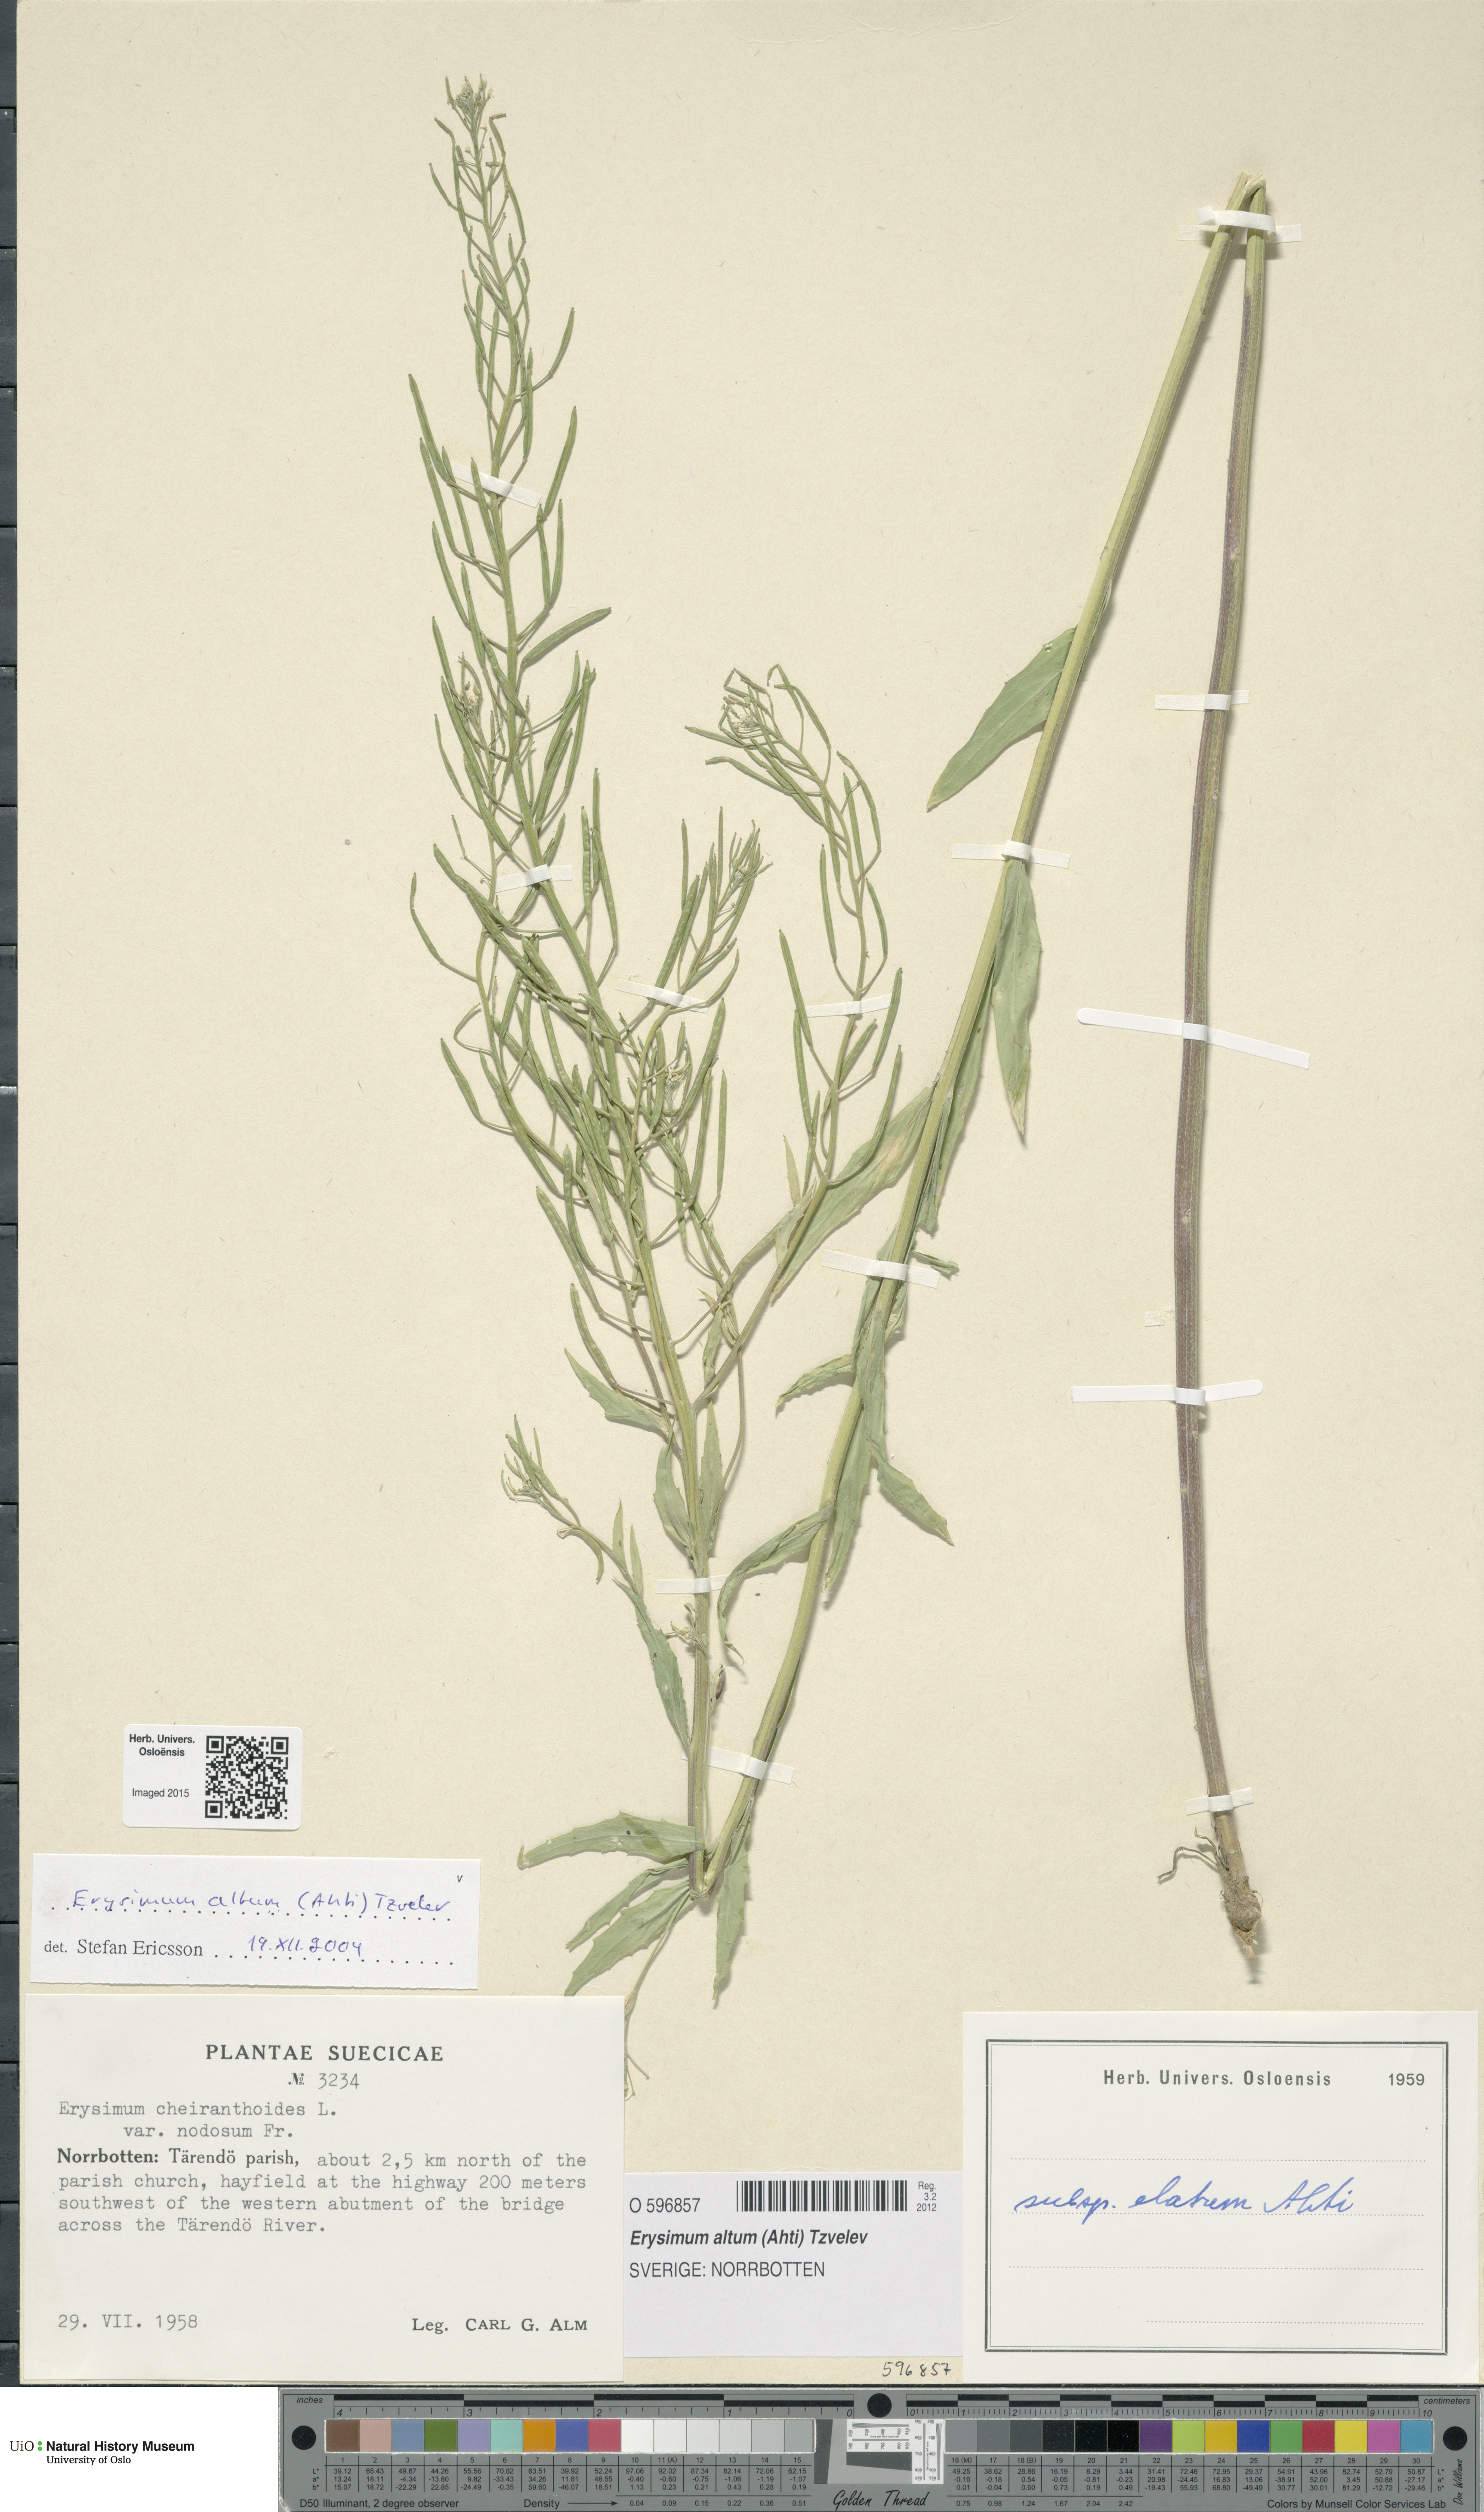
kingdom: Plantae
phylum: Tracheophyta
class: Magnoliopsida
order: Brassicales
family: Brassicaceae
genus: Erysimum
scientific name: Erysimum cheiranthoides
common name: Treacle mustard
